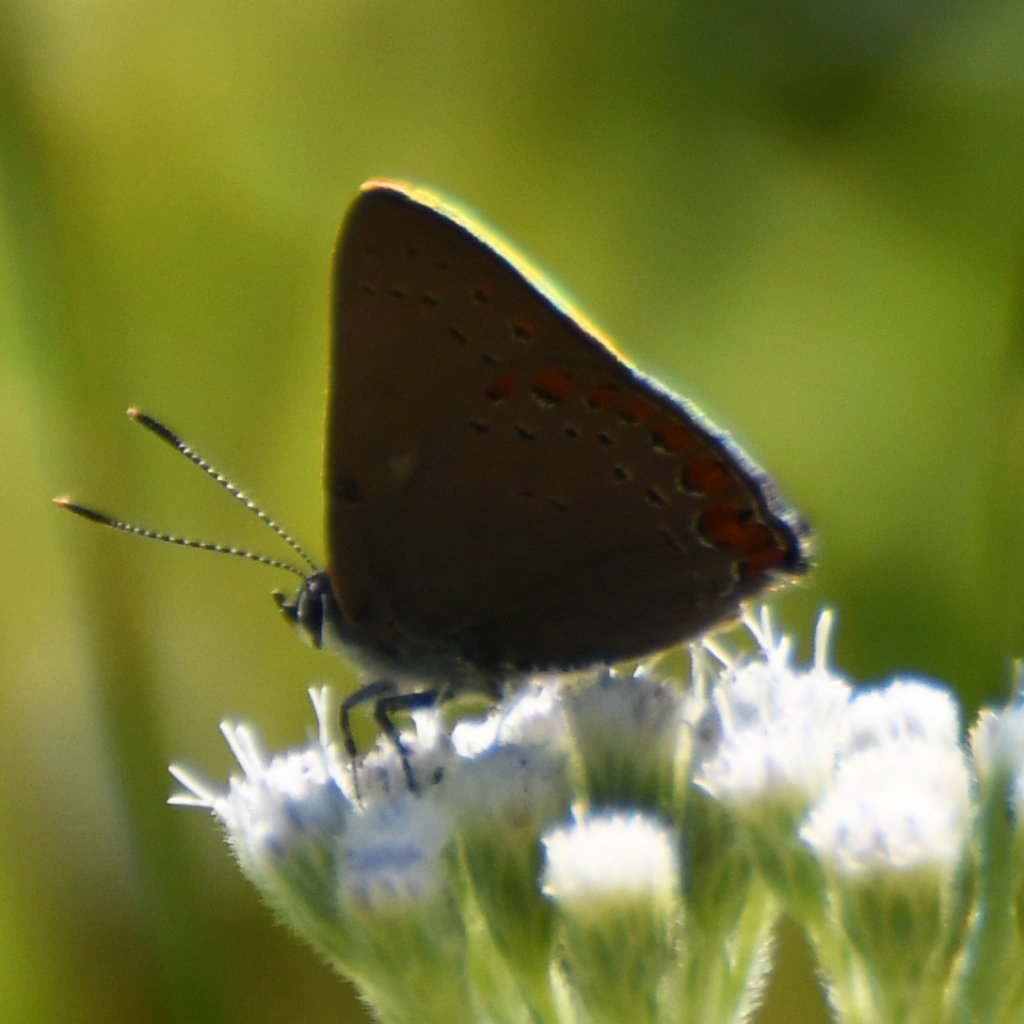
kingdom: Animalia
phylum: Arthropoda
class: Insecta
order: Lepidoptera
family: Lycaenidae
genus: Harkenclenus
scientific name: Harkenclenus titus
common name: Coral Hairstreak
